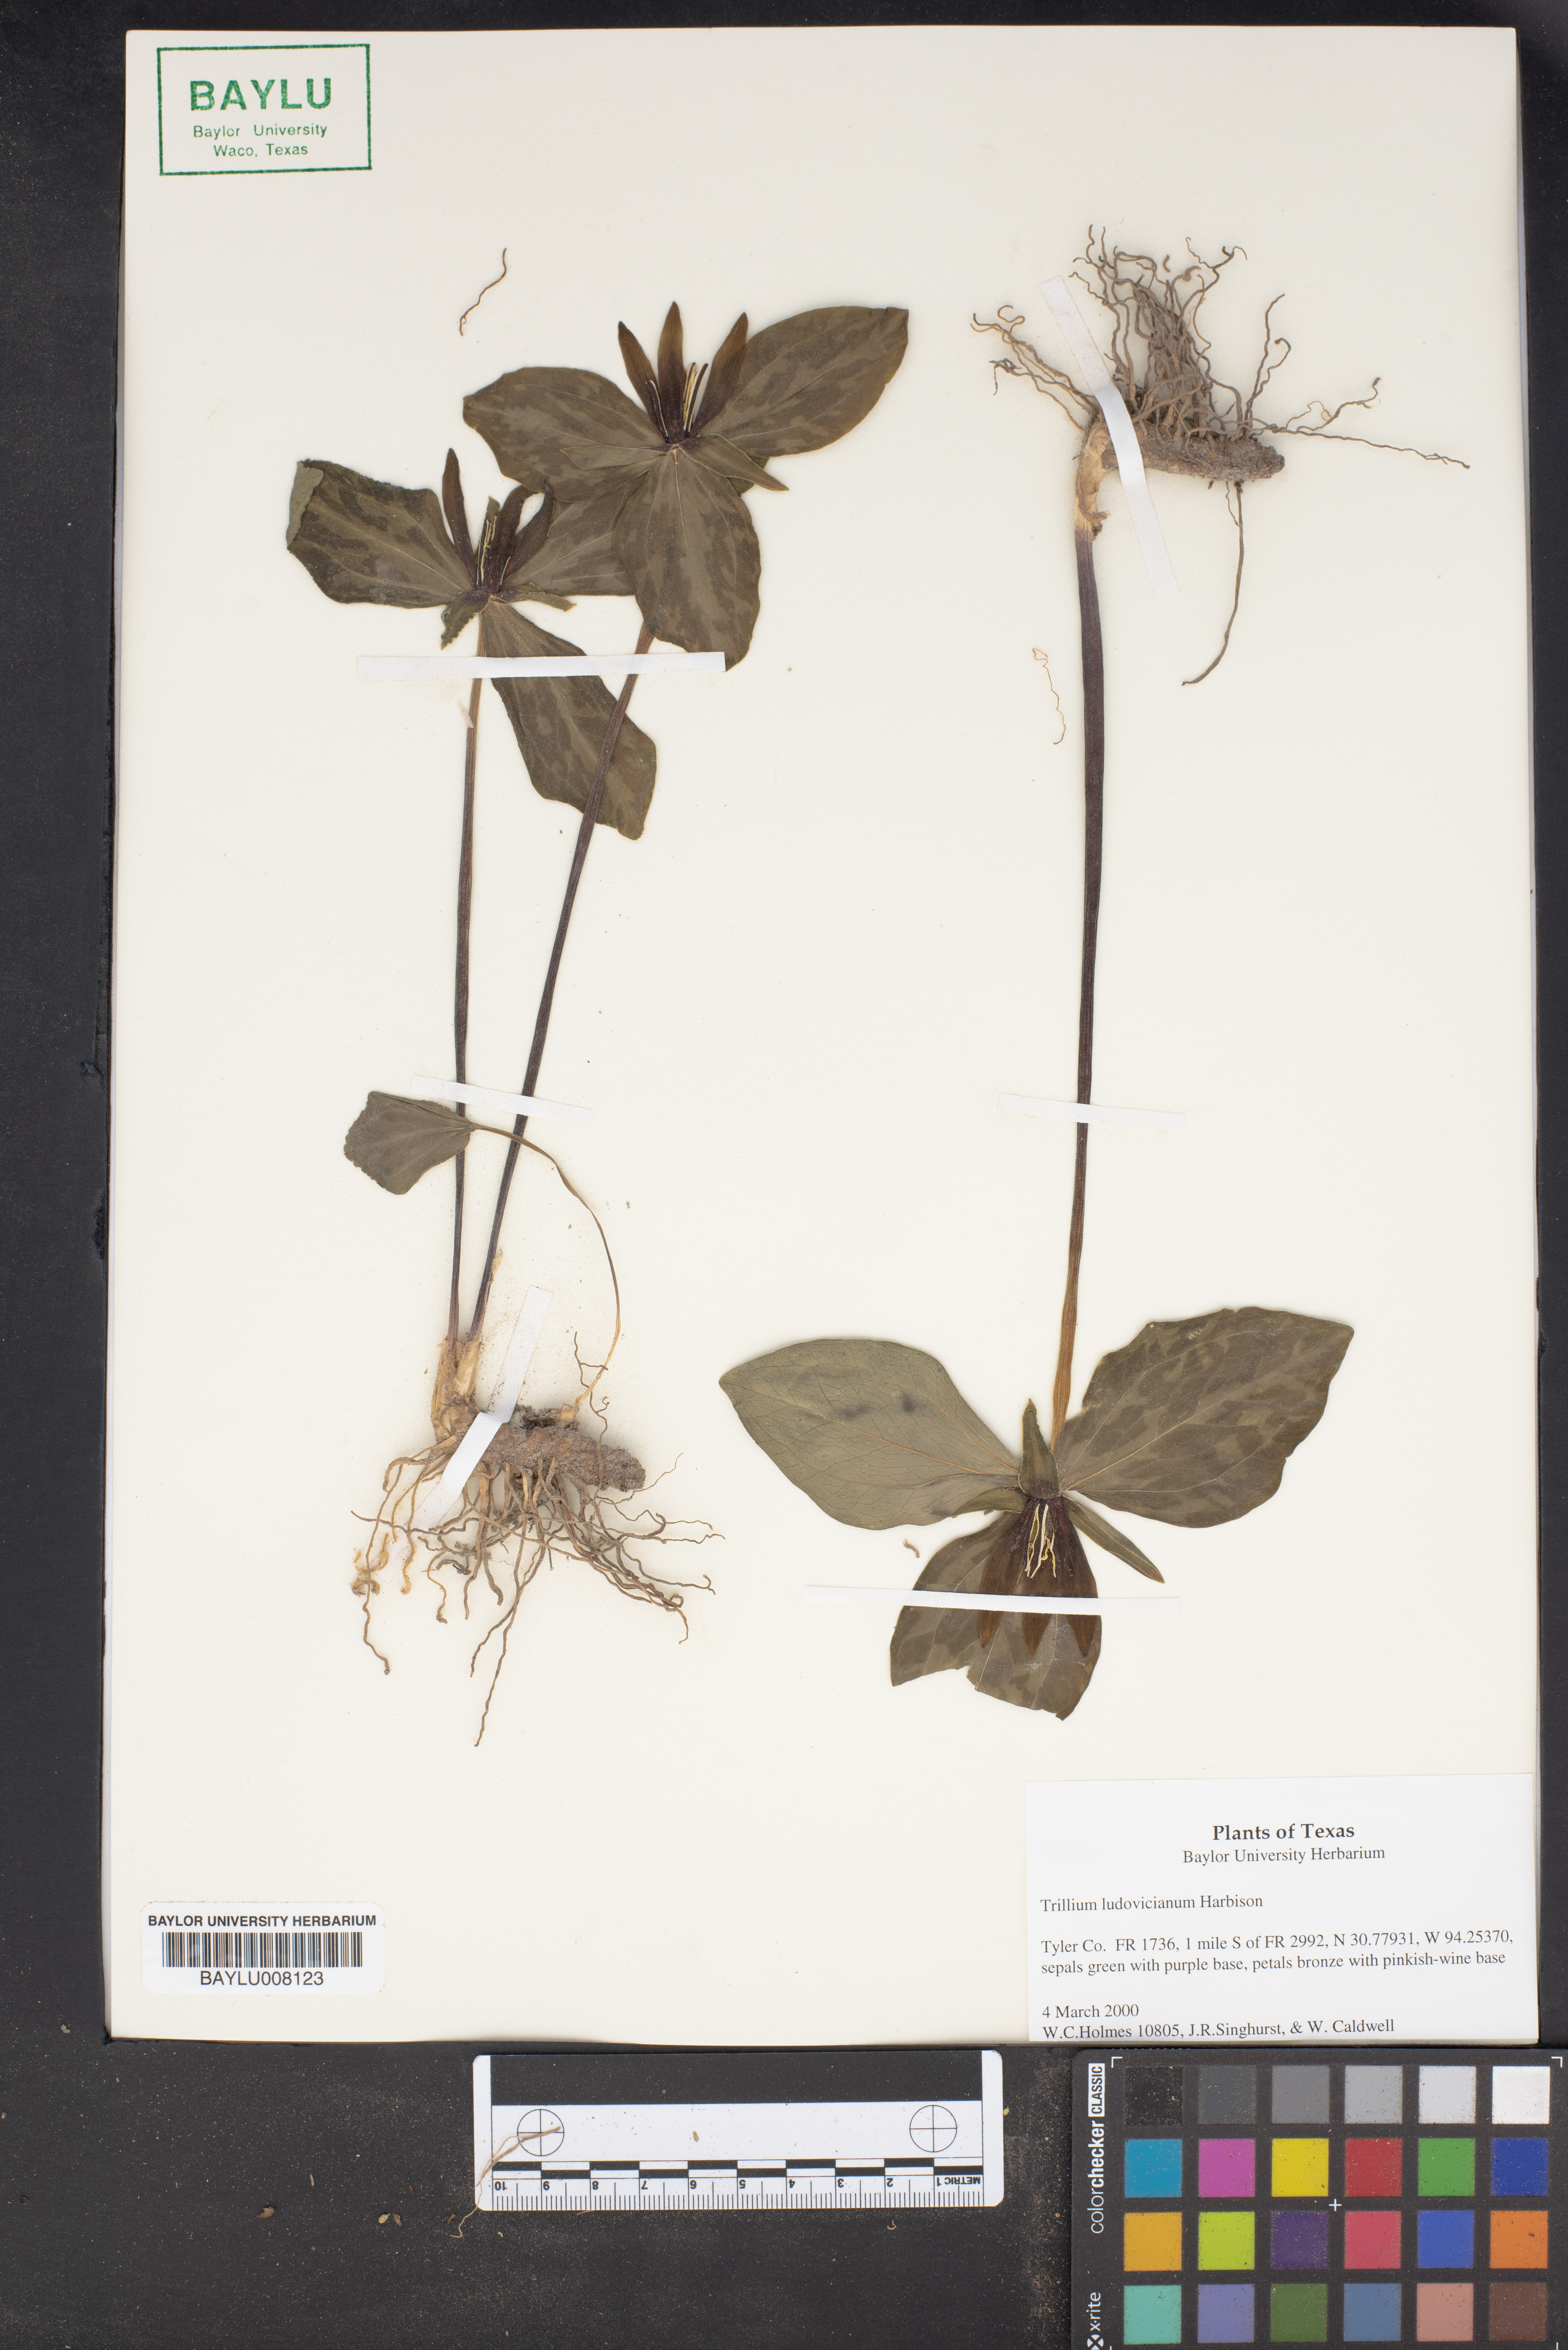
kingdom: Plantae
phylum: Tracheophyta
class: Liliopsida
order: Liliales
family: Melanthiaceae
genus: Trillium
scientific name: Trillium ludovicianum
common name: Louisiana toadshade
